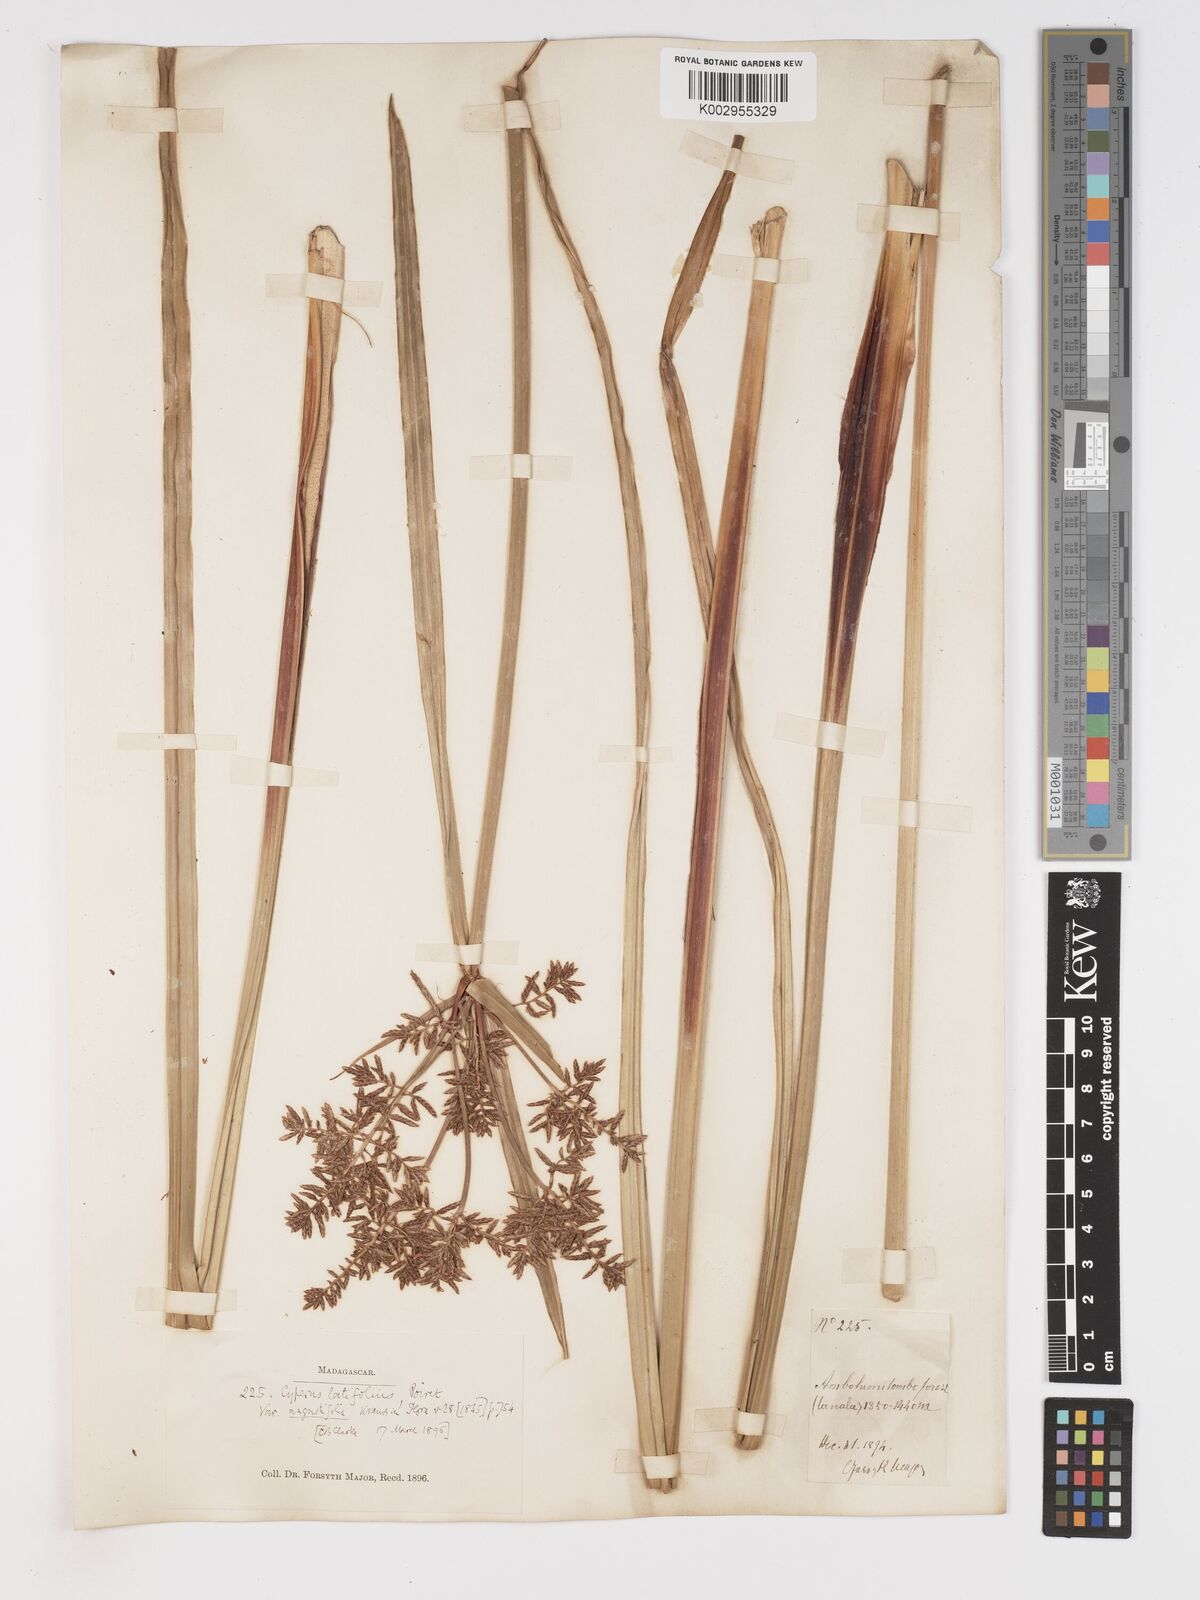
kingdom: Plantae
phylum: Tracheophyta
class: Liliopsida
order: Poales
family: Cyperaceae
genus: Cyperus
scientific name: Cyperus latifolius
